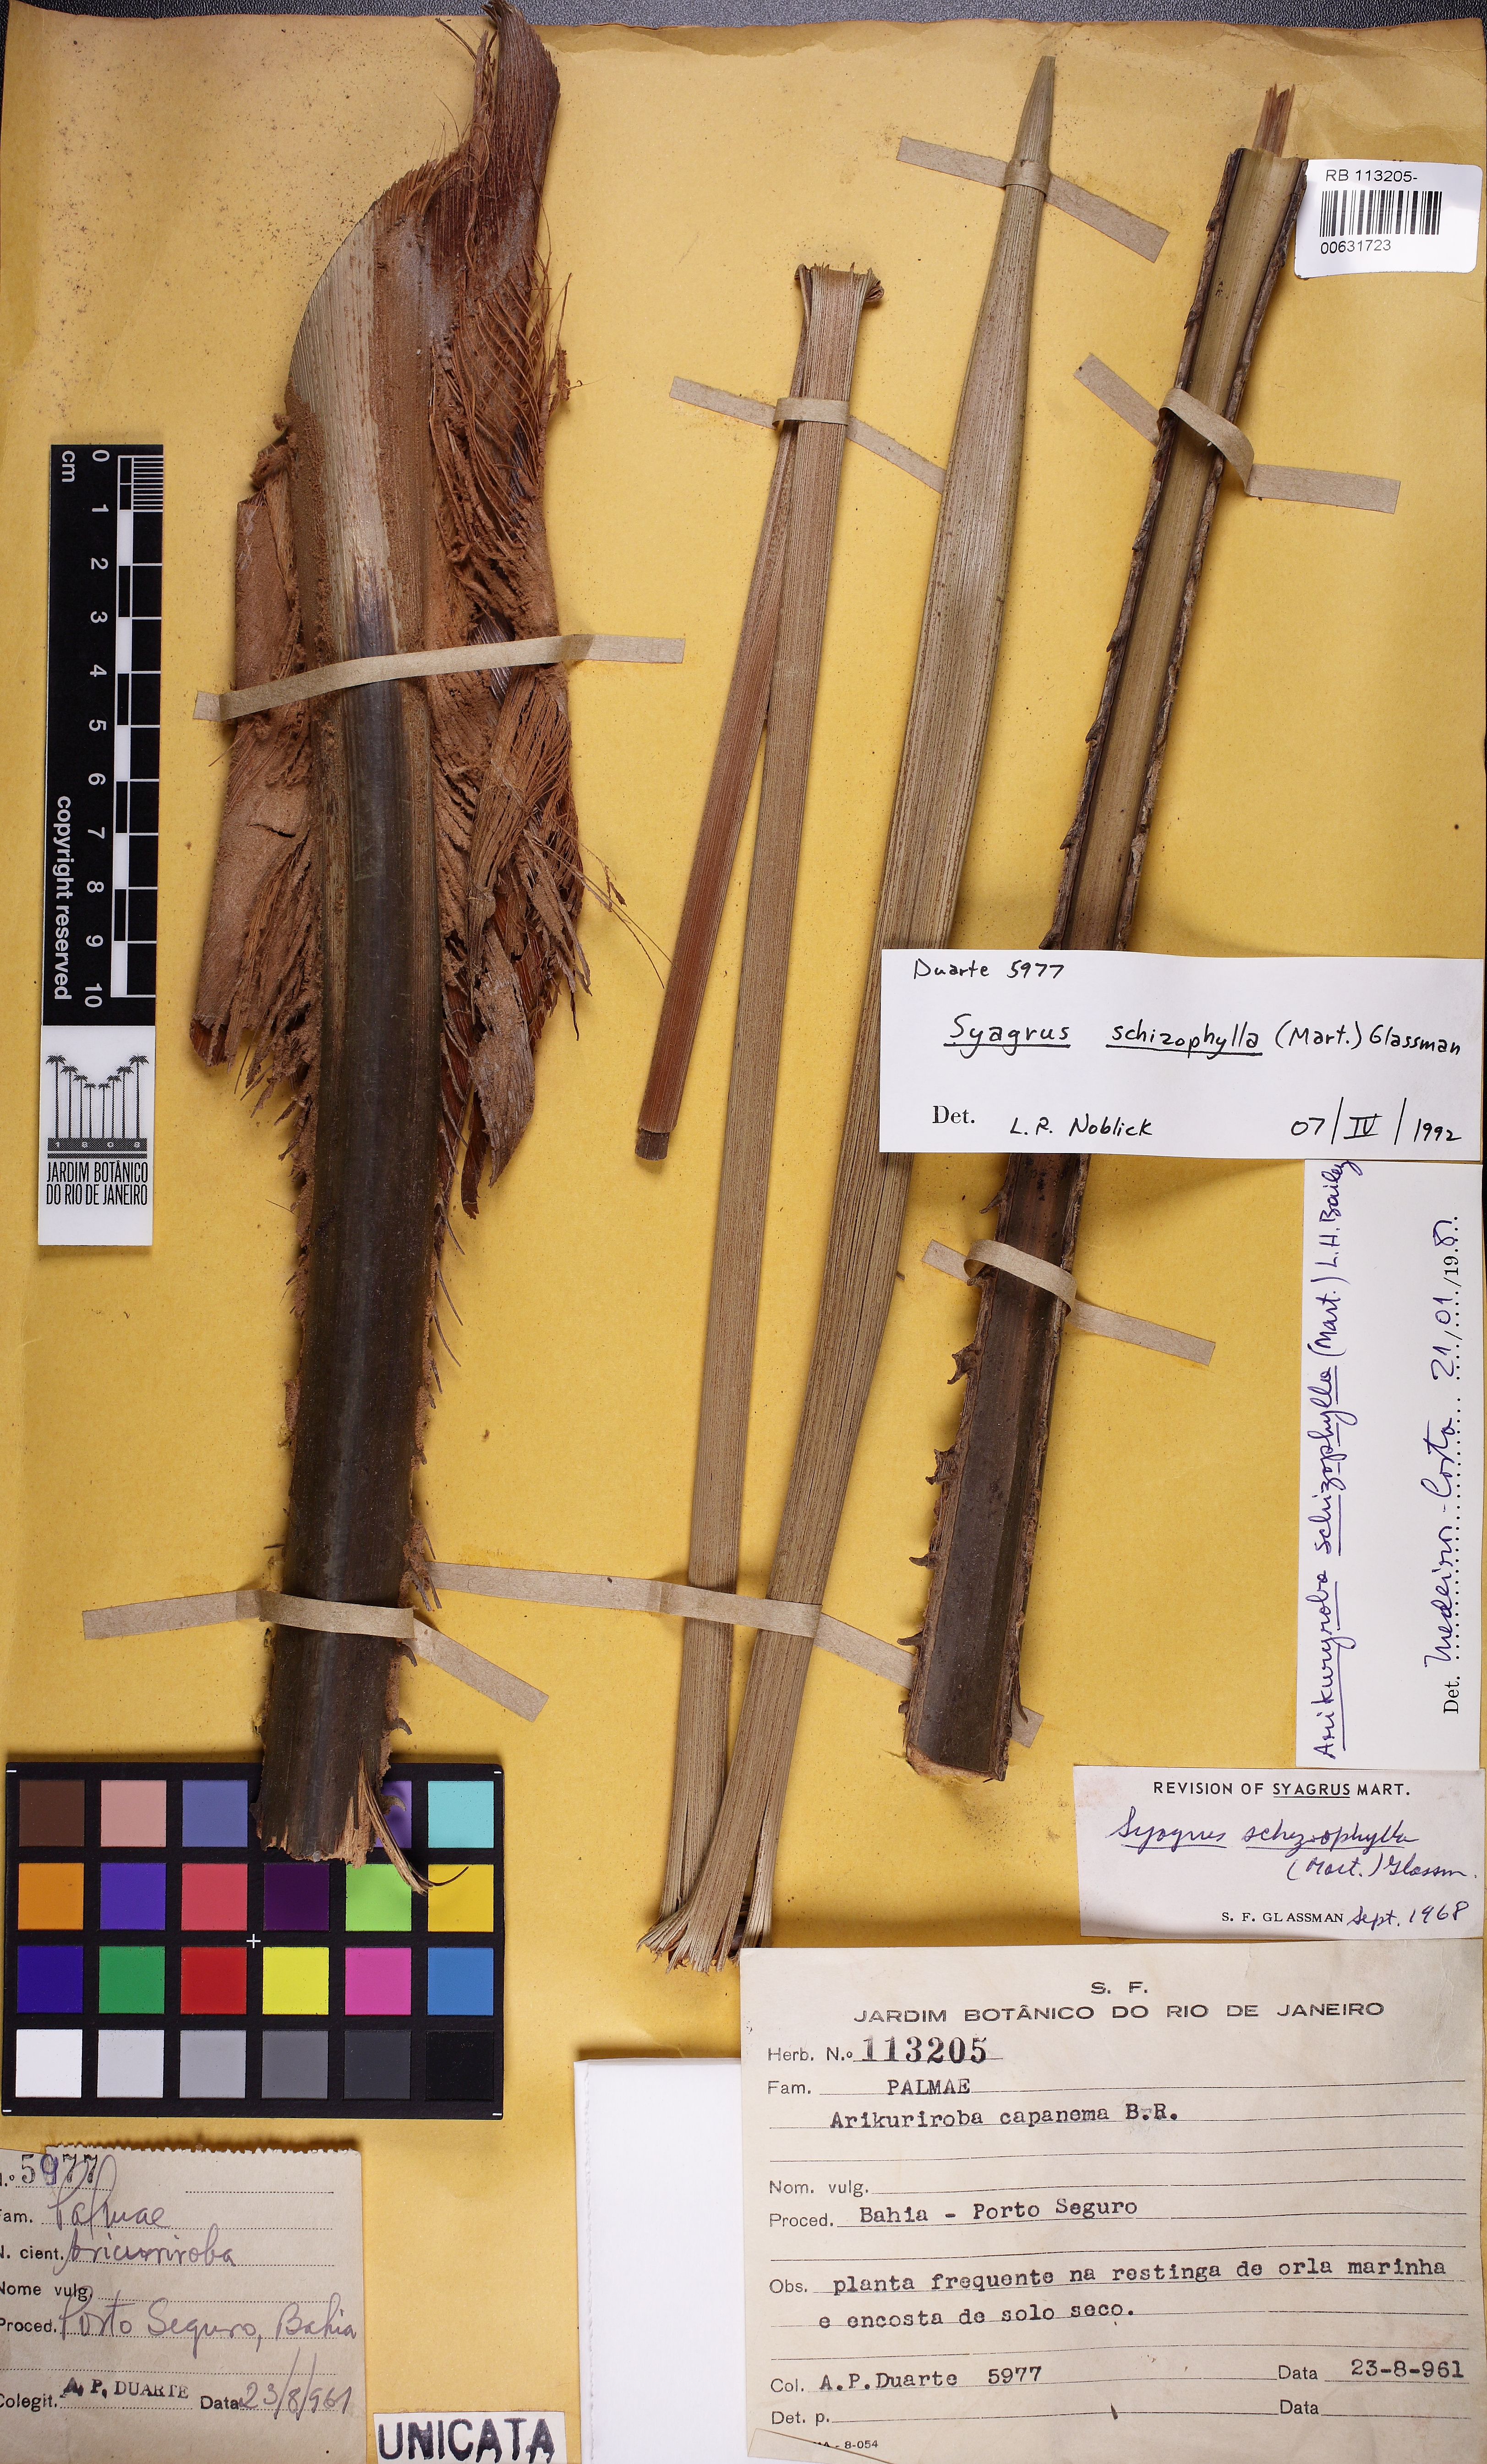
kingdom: Plantae
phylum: Tracheophyta
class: Liliopsida
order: Arecales
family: Arecaceae
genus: Syagrus
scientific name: Syagrus schizophylla
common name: Arikury palm
